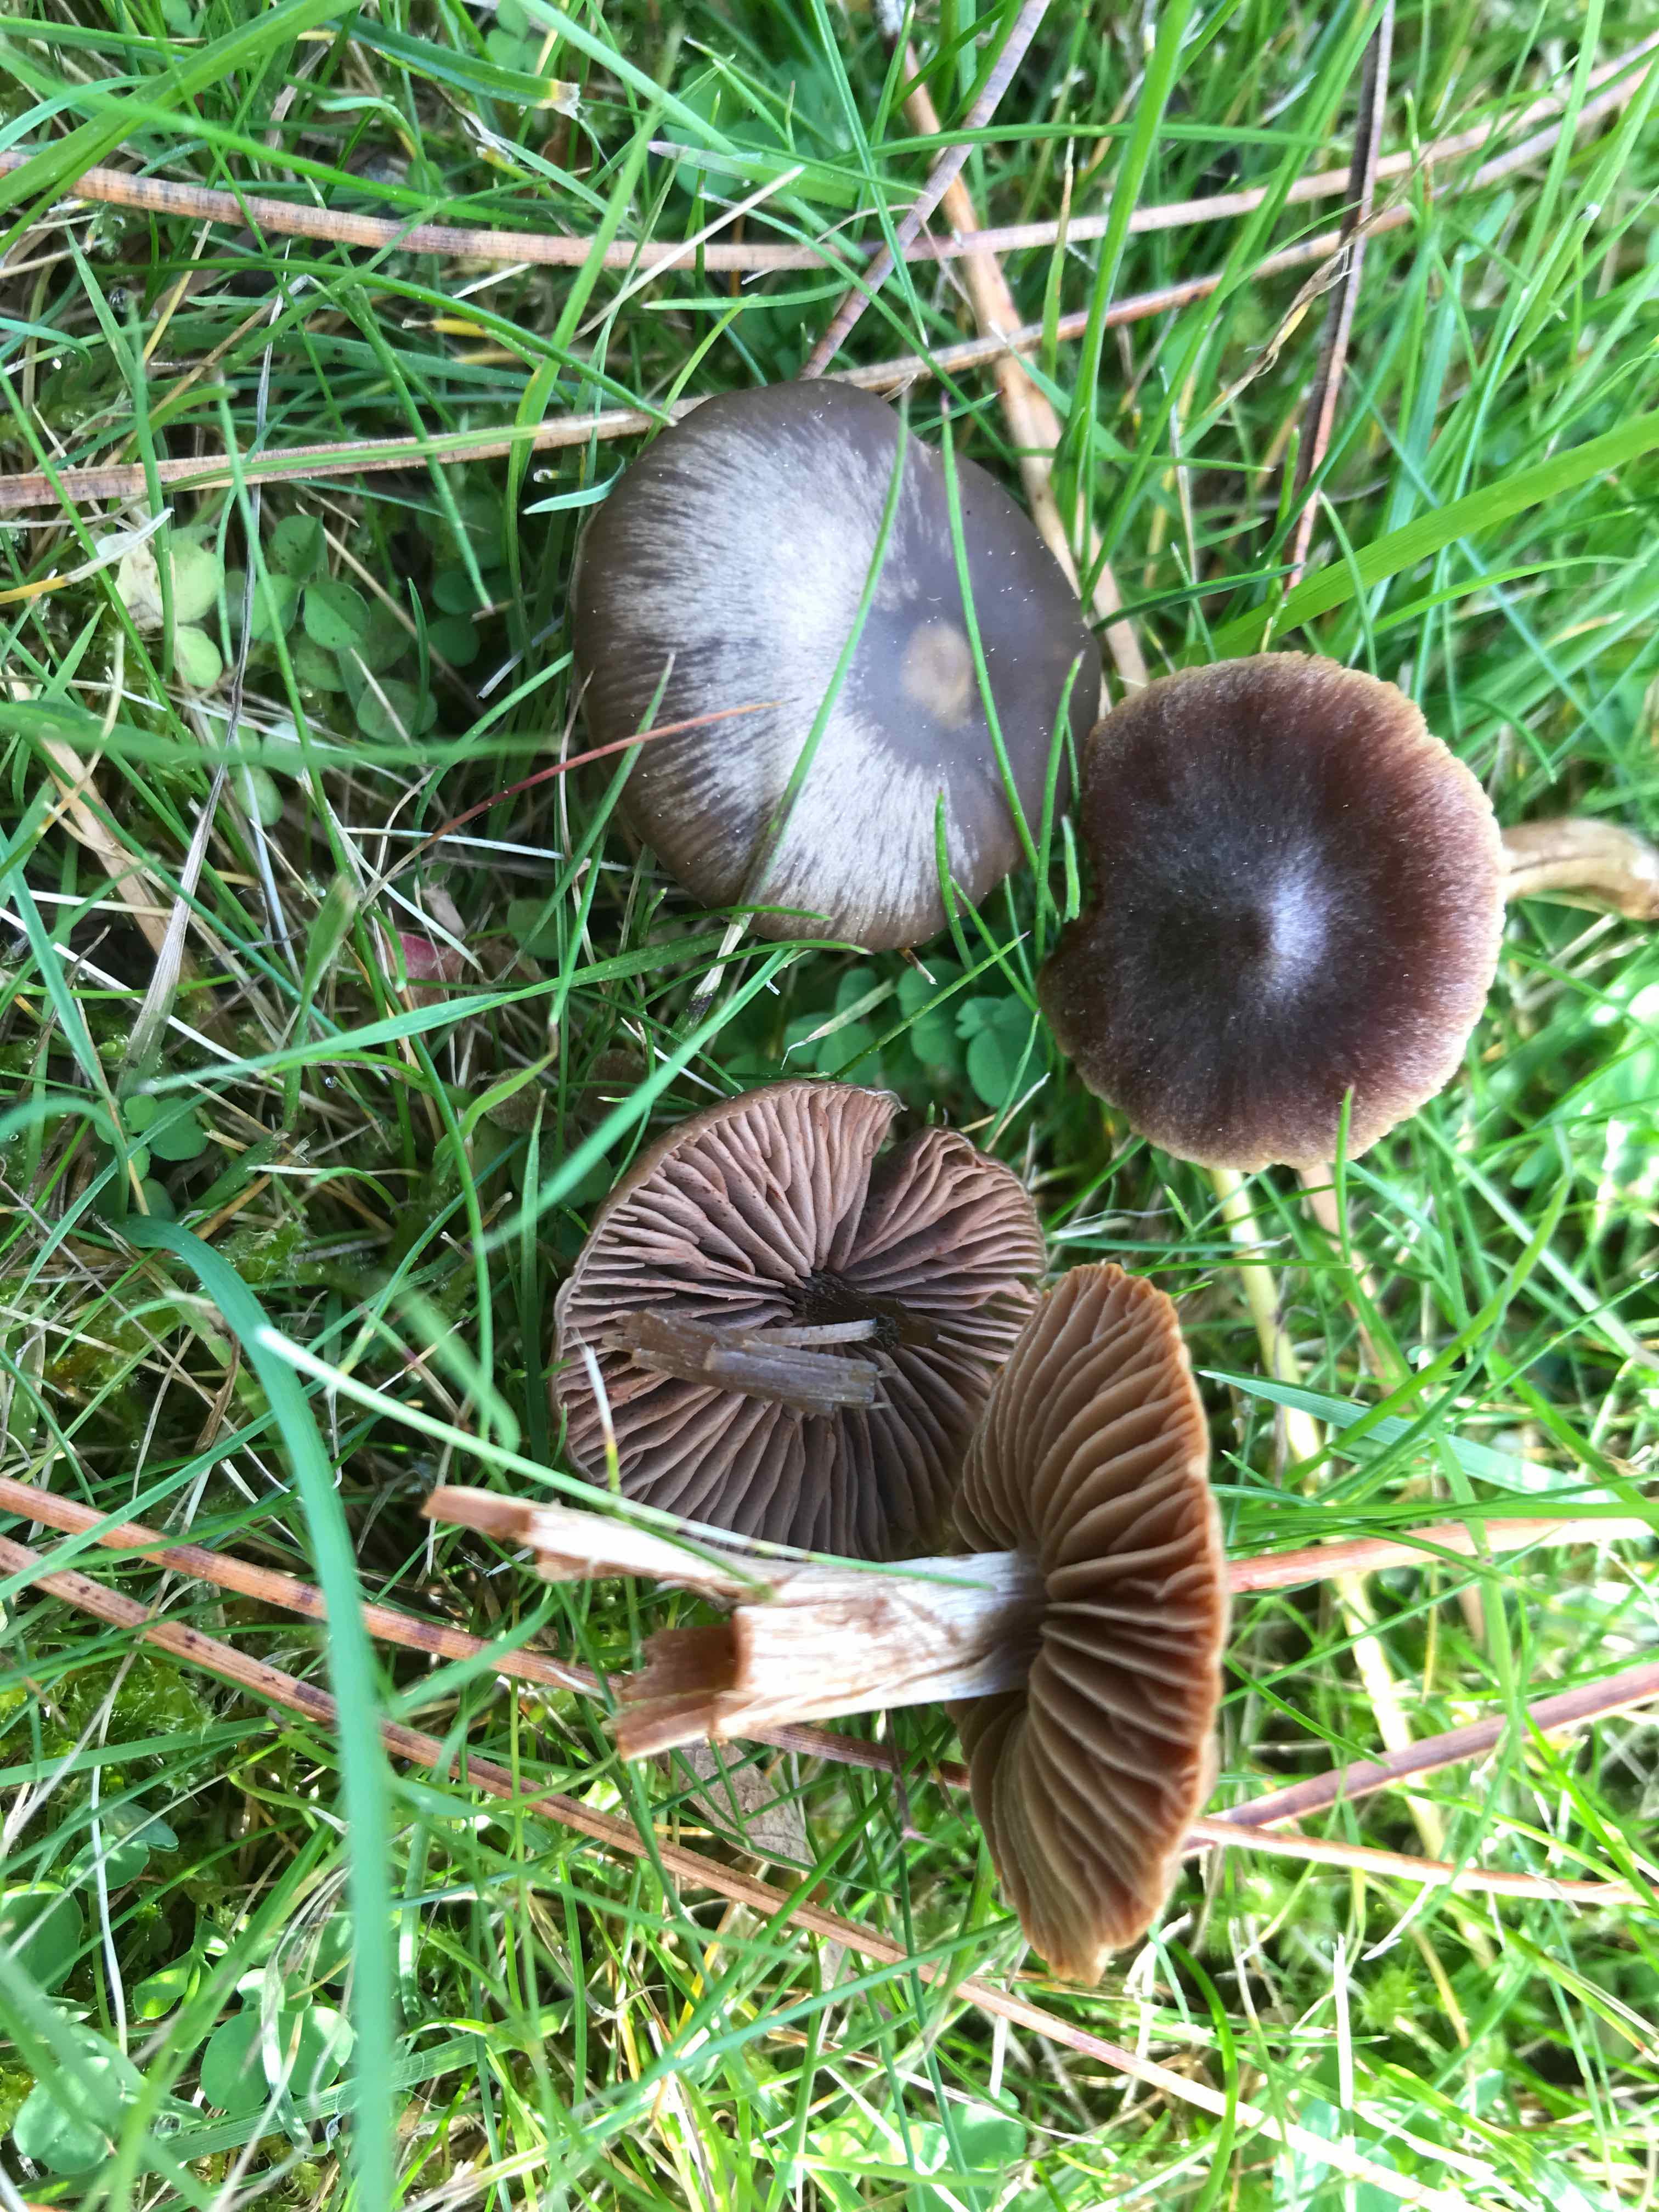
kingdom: Fungi
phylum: Basidiomycota
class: Agaricomycetes
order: Agaricales
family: Entolomataceae
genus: Entoloma
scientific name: Entoloma sericeum
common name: silkeglinsende rødblad
